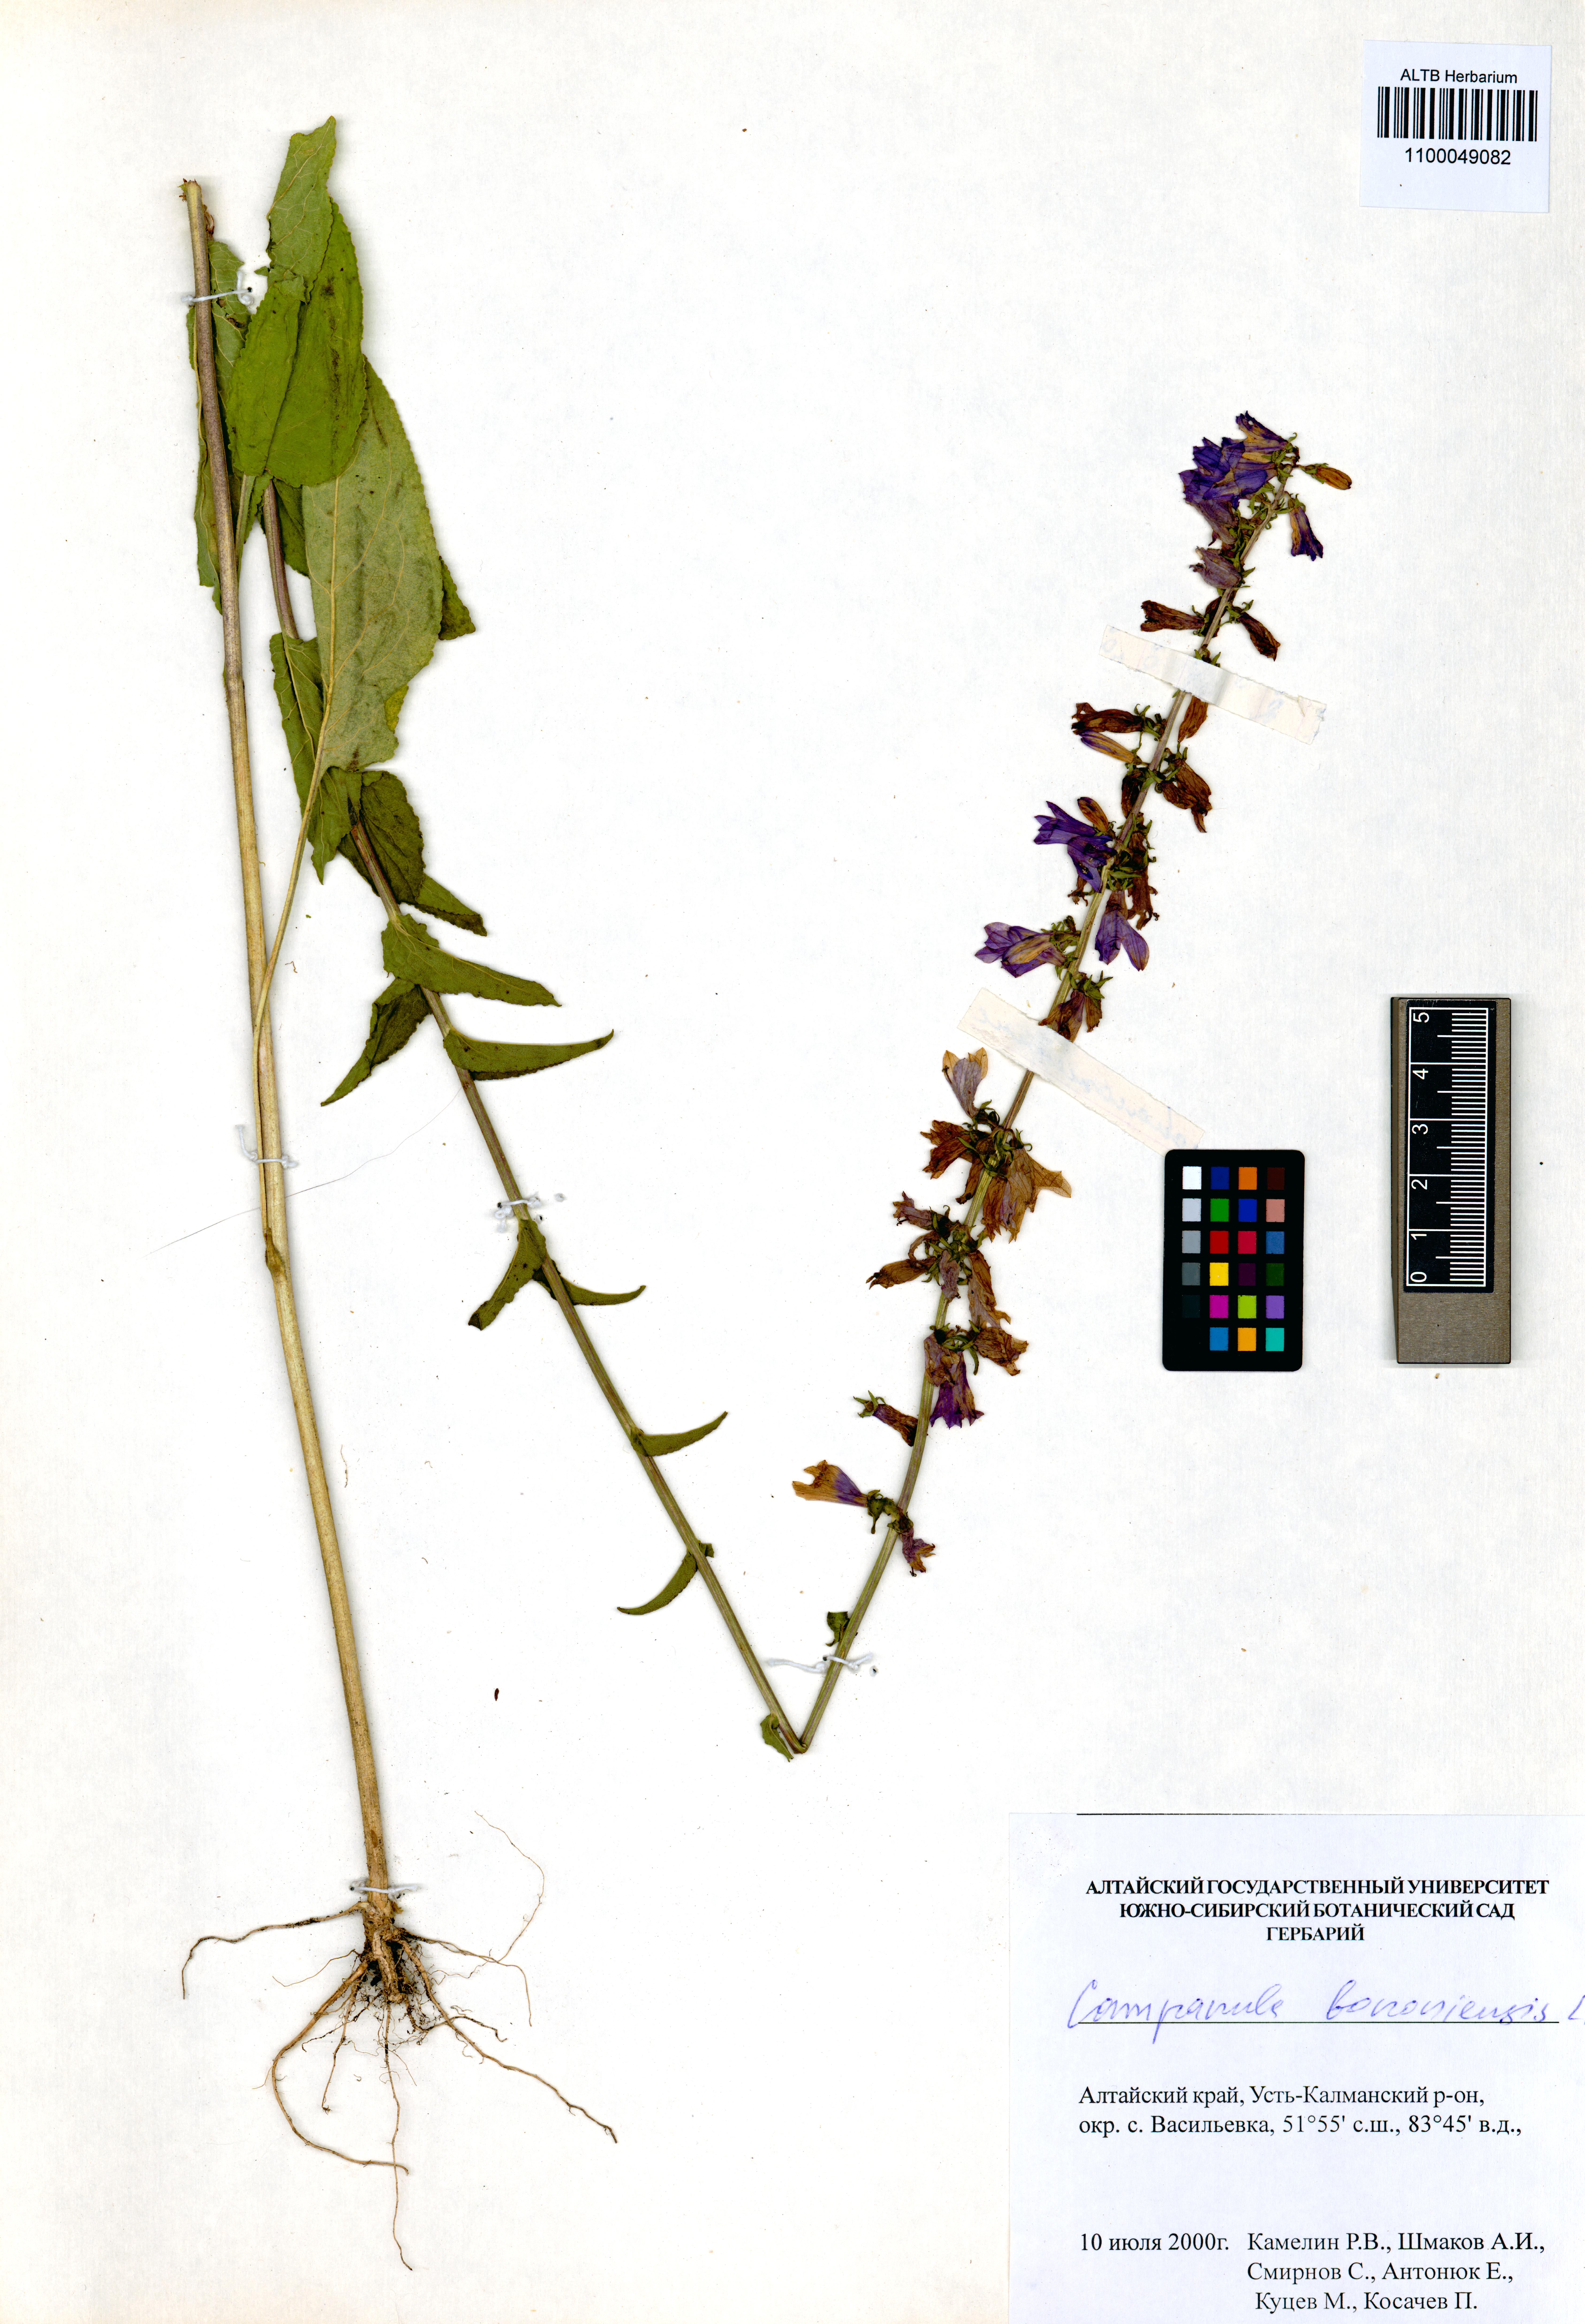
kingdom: Plantae
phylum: Tracheophyta
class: Magnoliopsida
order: Asterales
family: Campanulaceae
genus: Campanula
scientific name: Campanula bononiensis
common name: Pale bellflower
